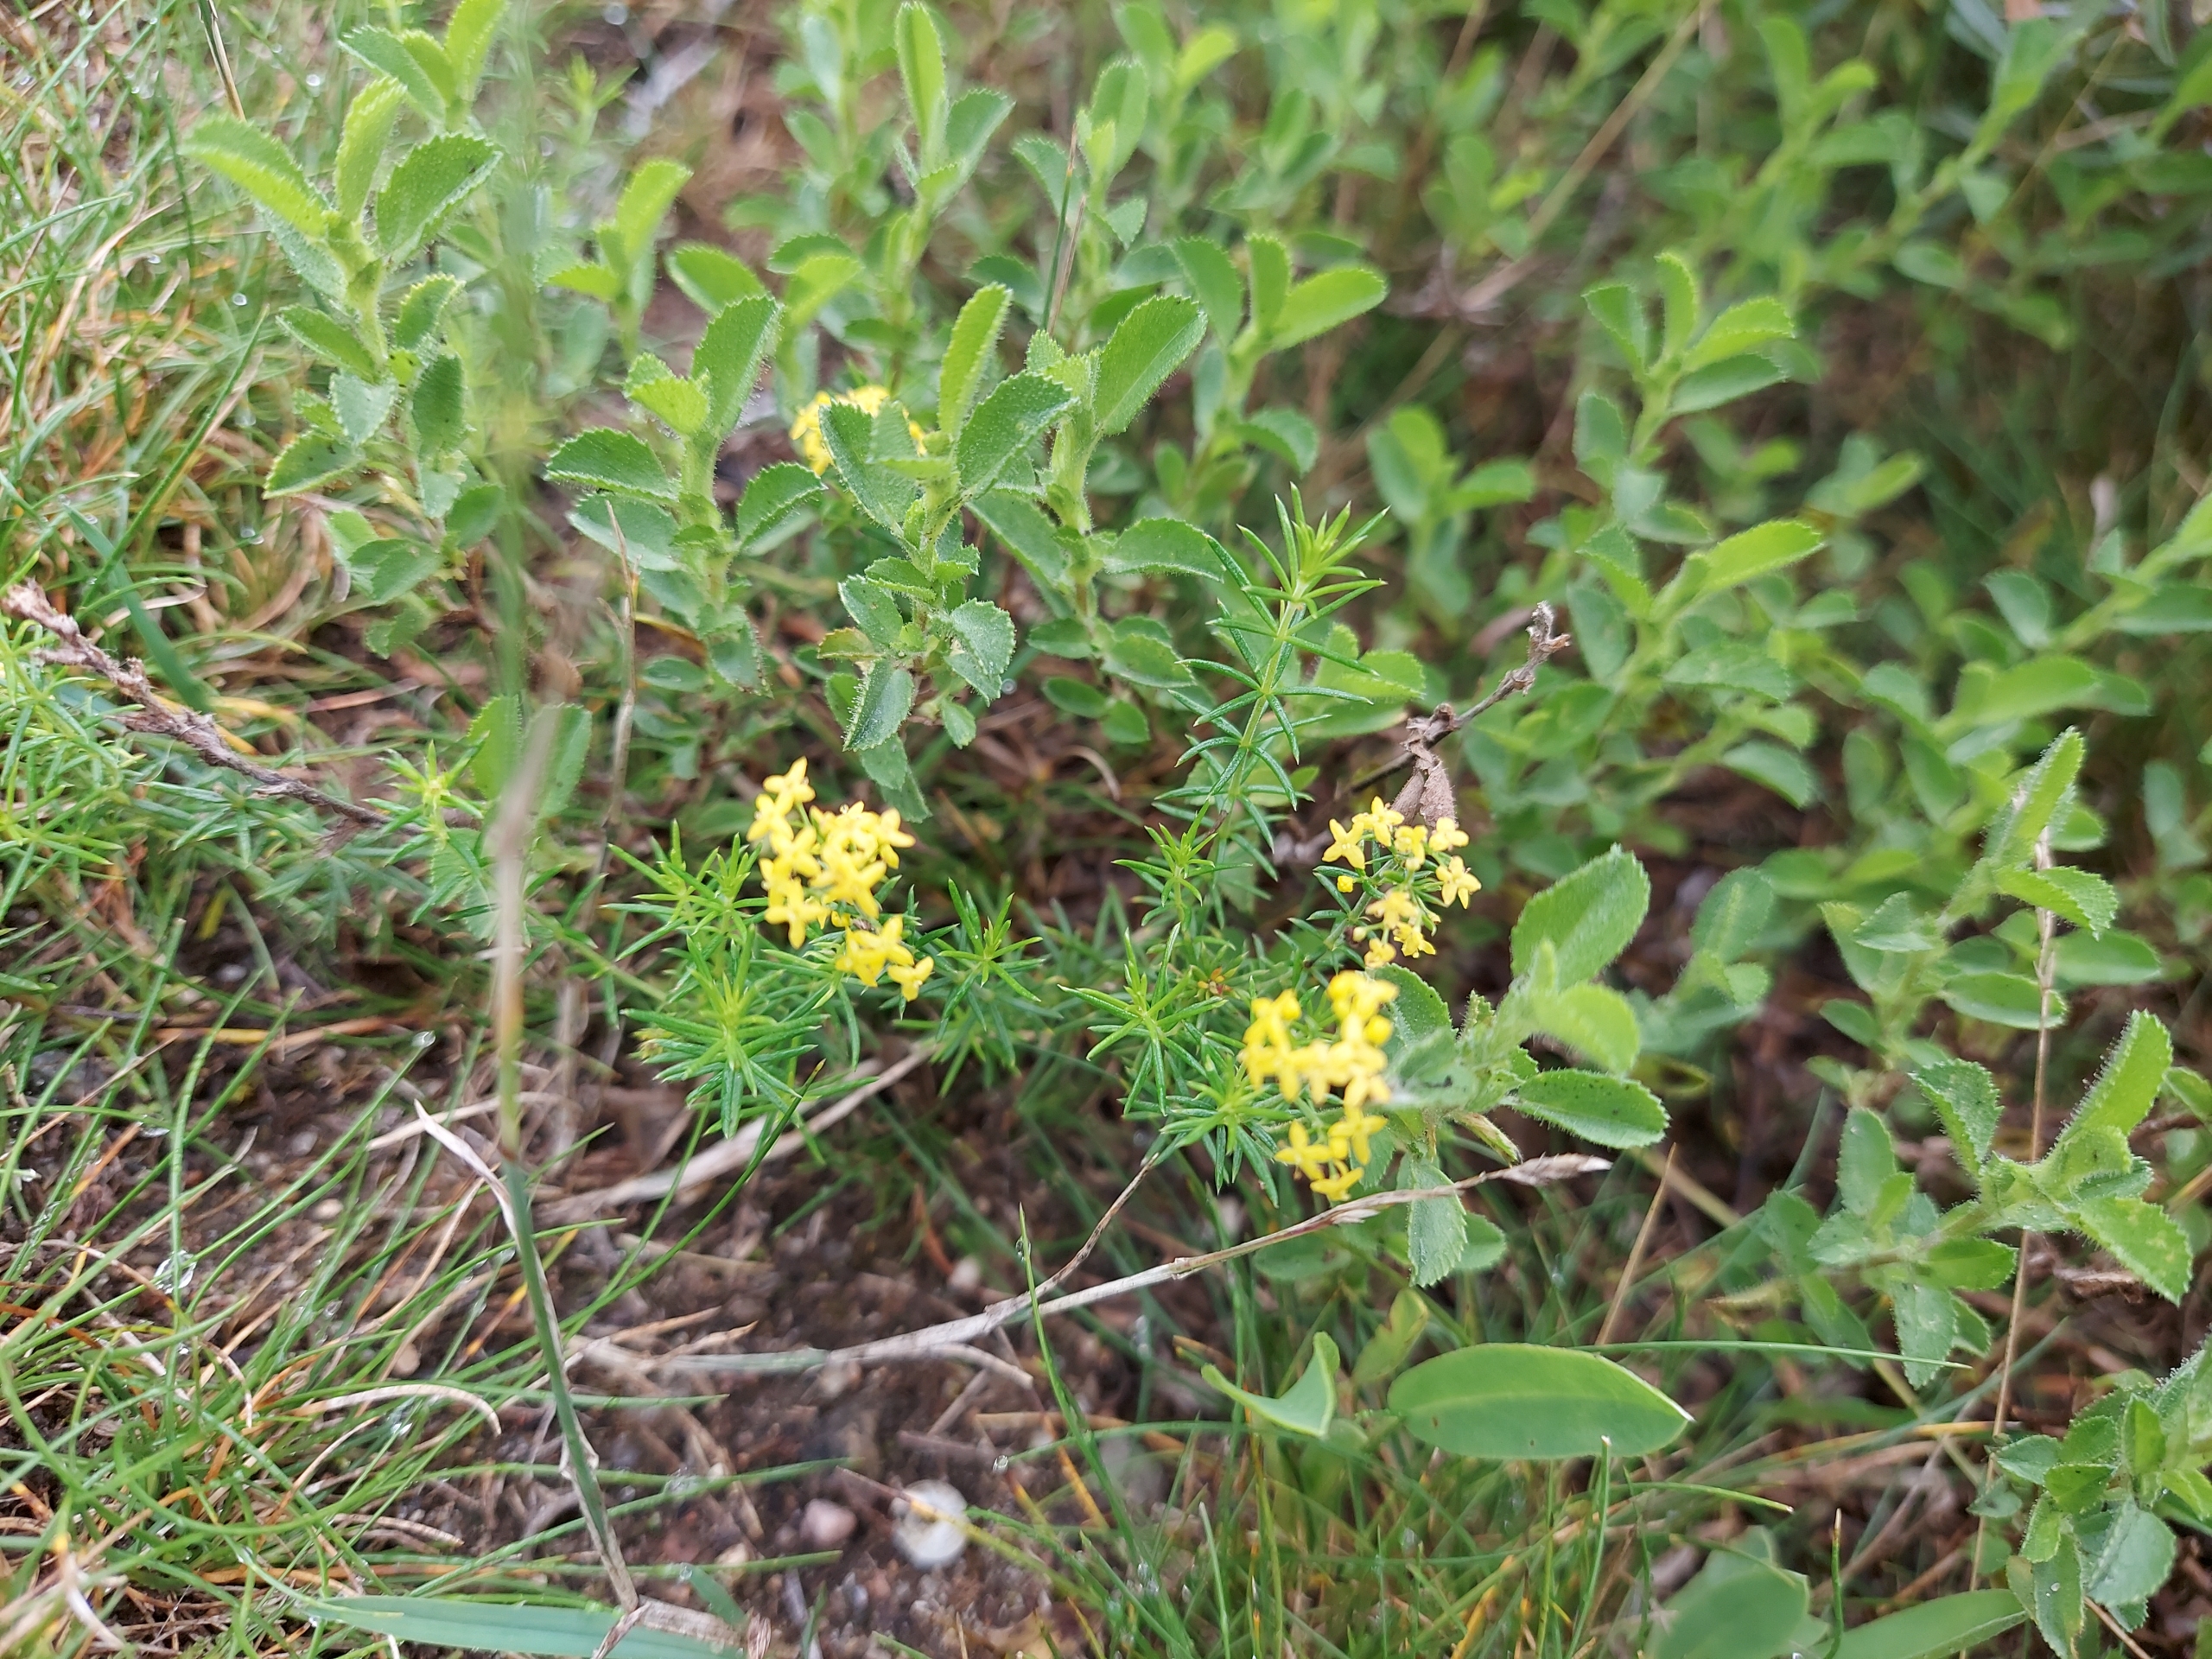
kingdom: Plantae
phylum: Tracheophyta
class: Magnoliopsida
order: Gentianales
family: Rubiaceae
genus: Galium
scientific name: Galium verum
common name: Gul snerre
